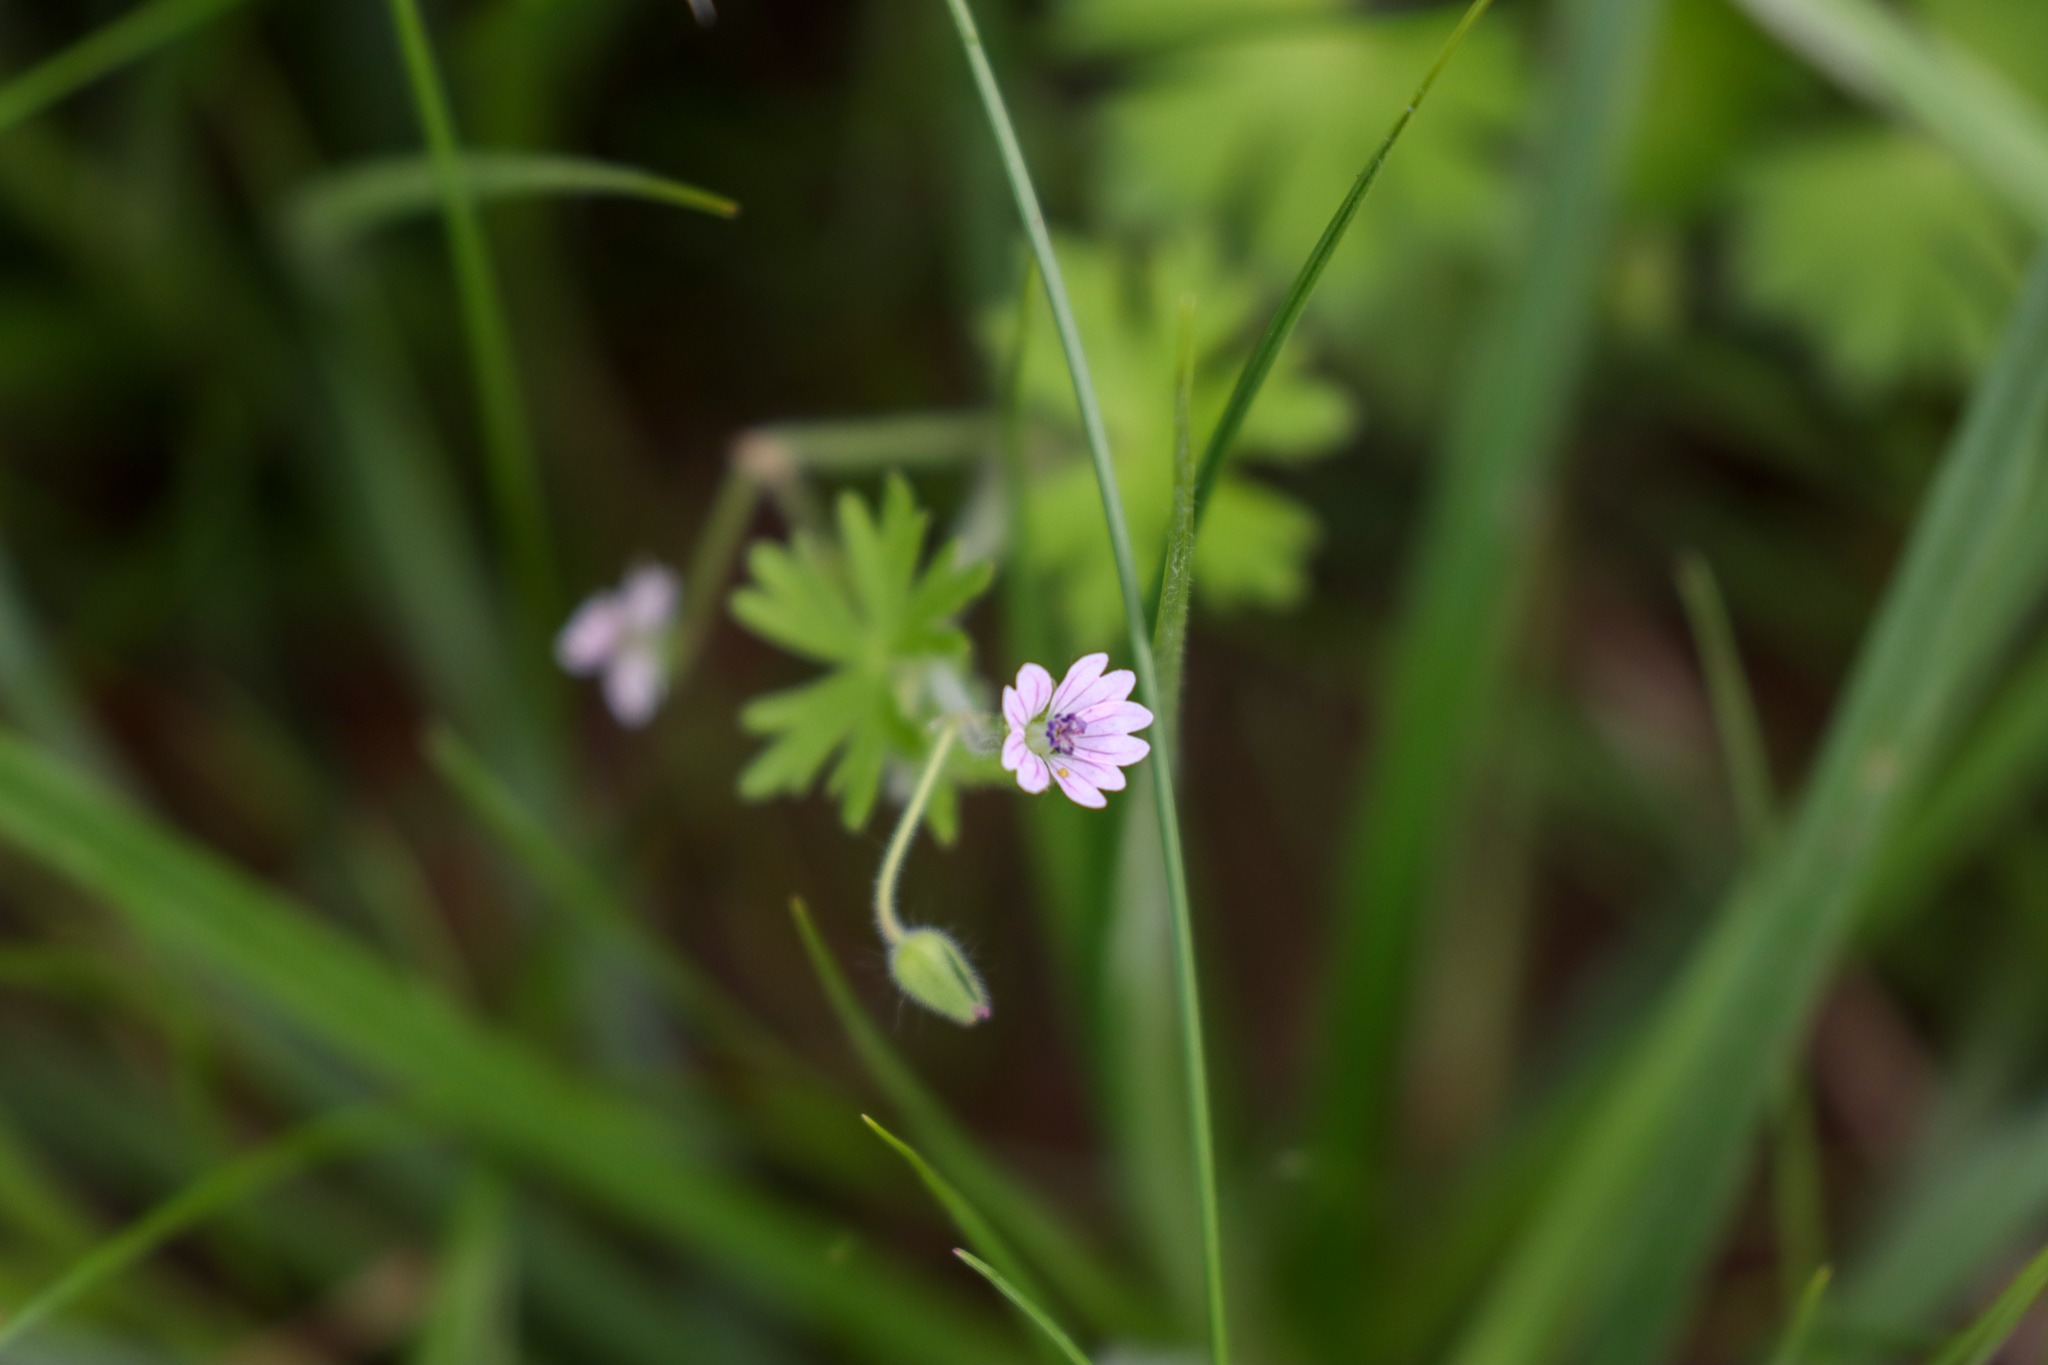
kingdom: Plantae
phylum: Tracheophyta
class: Magnoliopsida
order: Geraniales
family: Geraniaceae
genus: Geranium
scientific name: Geranium pusillum
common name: Liden storkenæb
